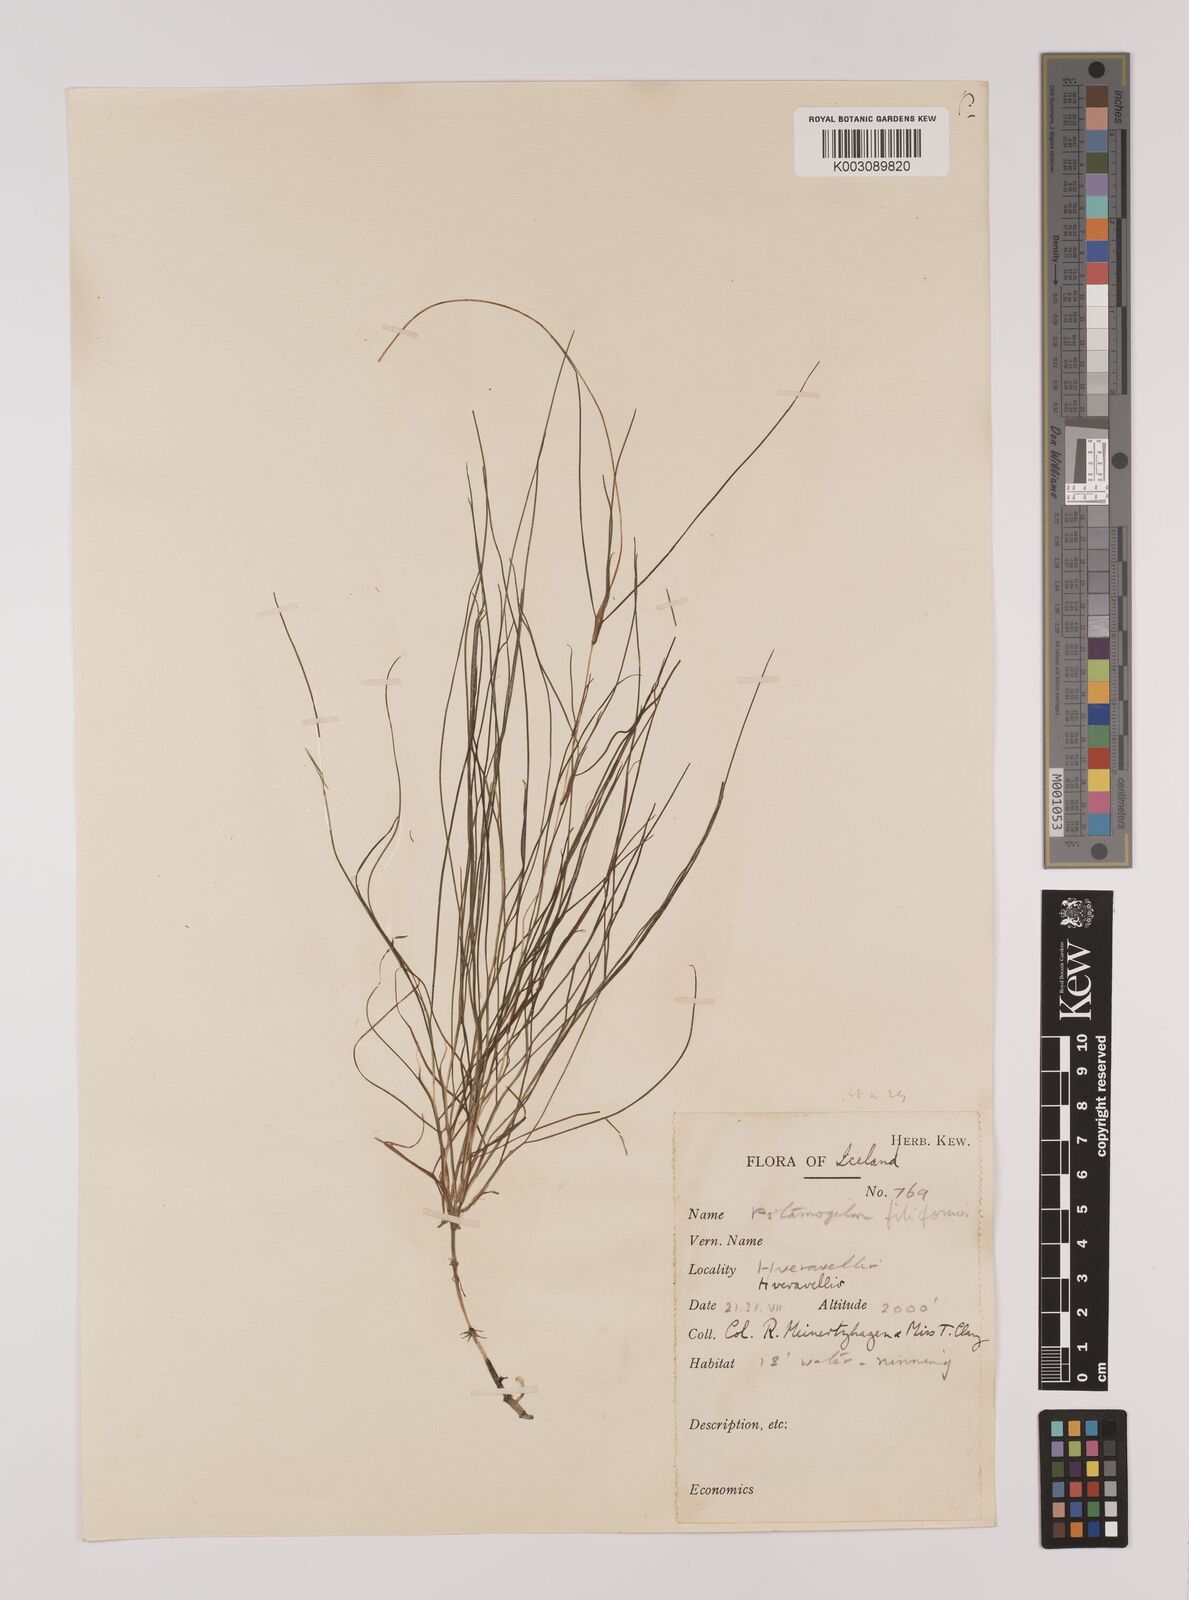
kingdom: Plantae
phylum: Tracheophyta
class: Liliopsida
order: Alismatales
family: Potamogetonaceae
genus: Stuckenia
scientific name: Stuckenia pectinata
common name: Sago pondweed
